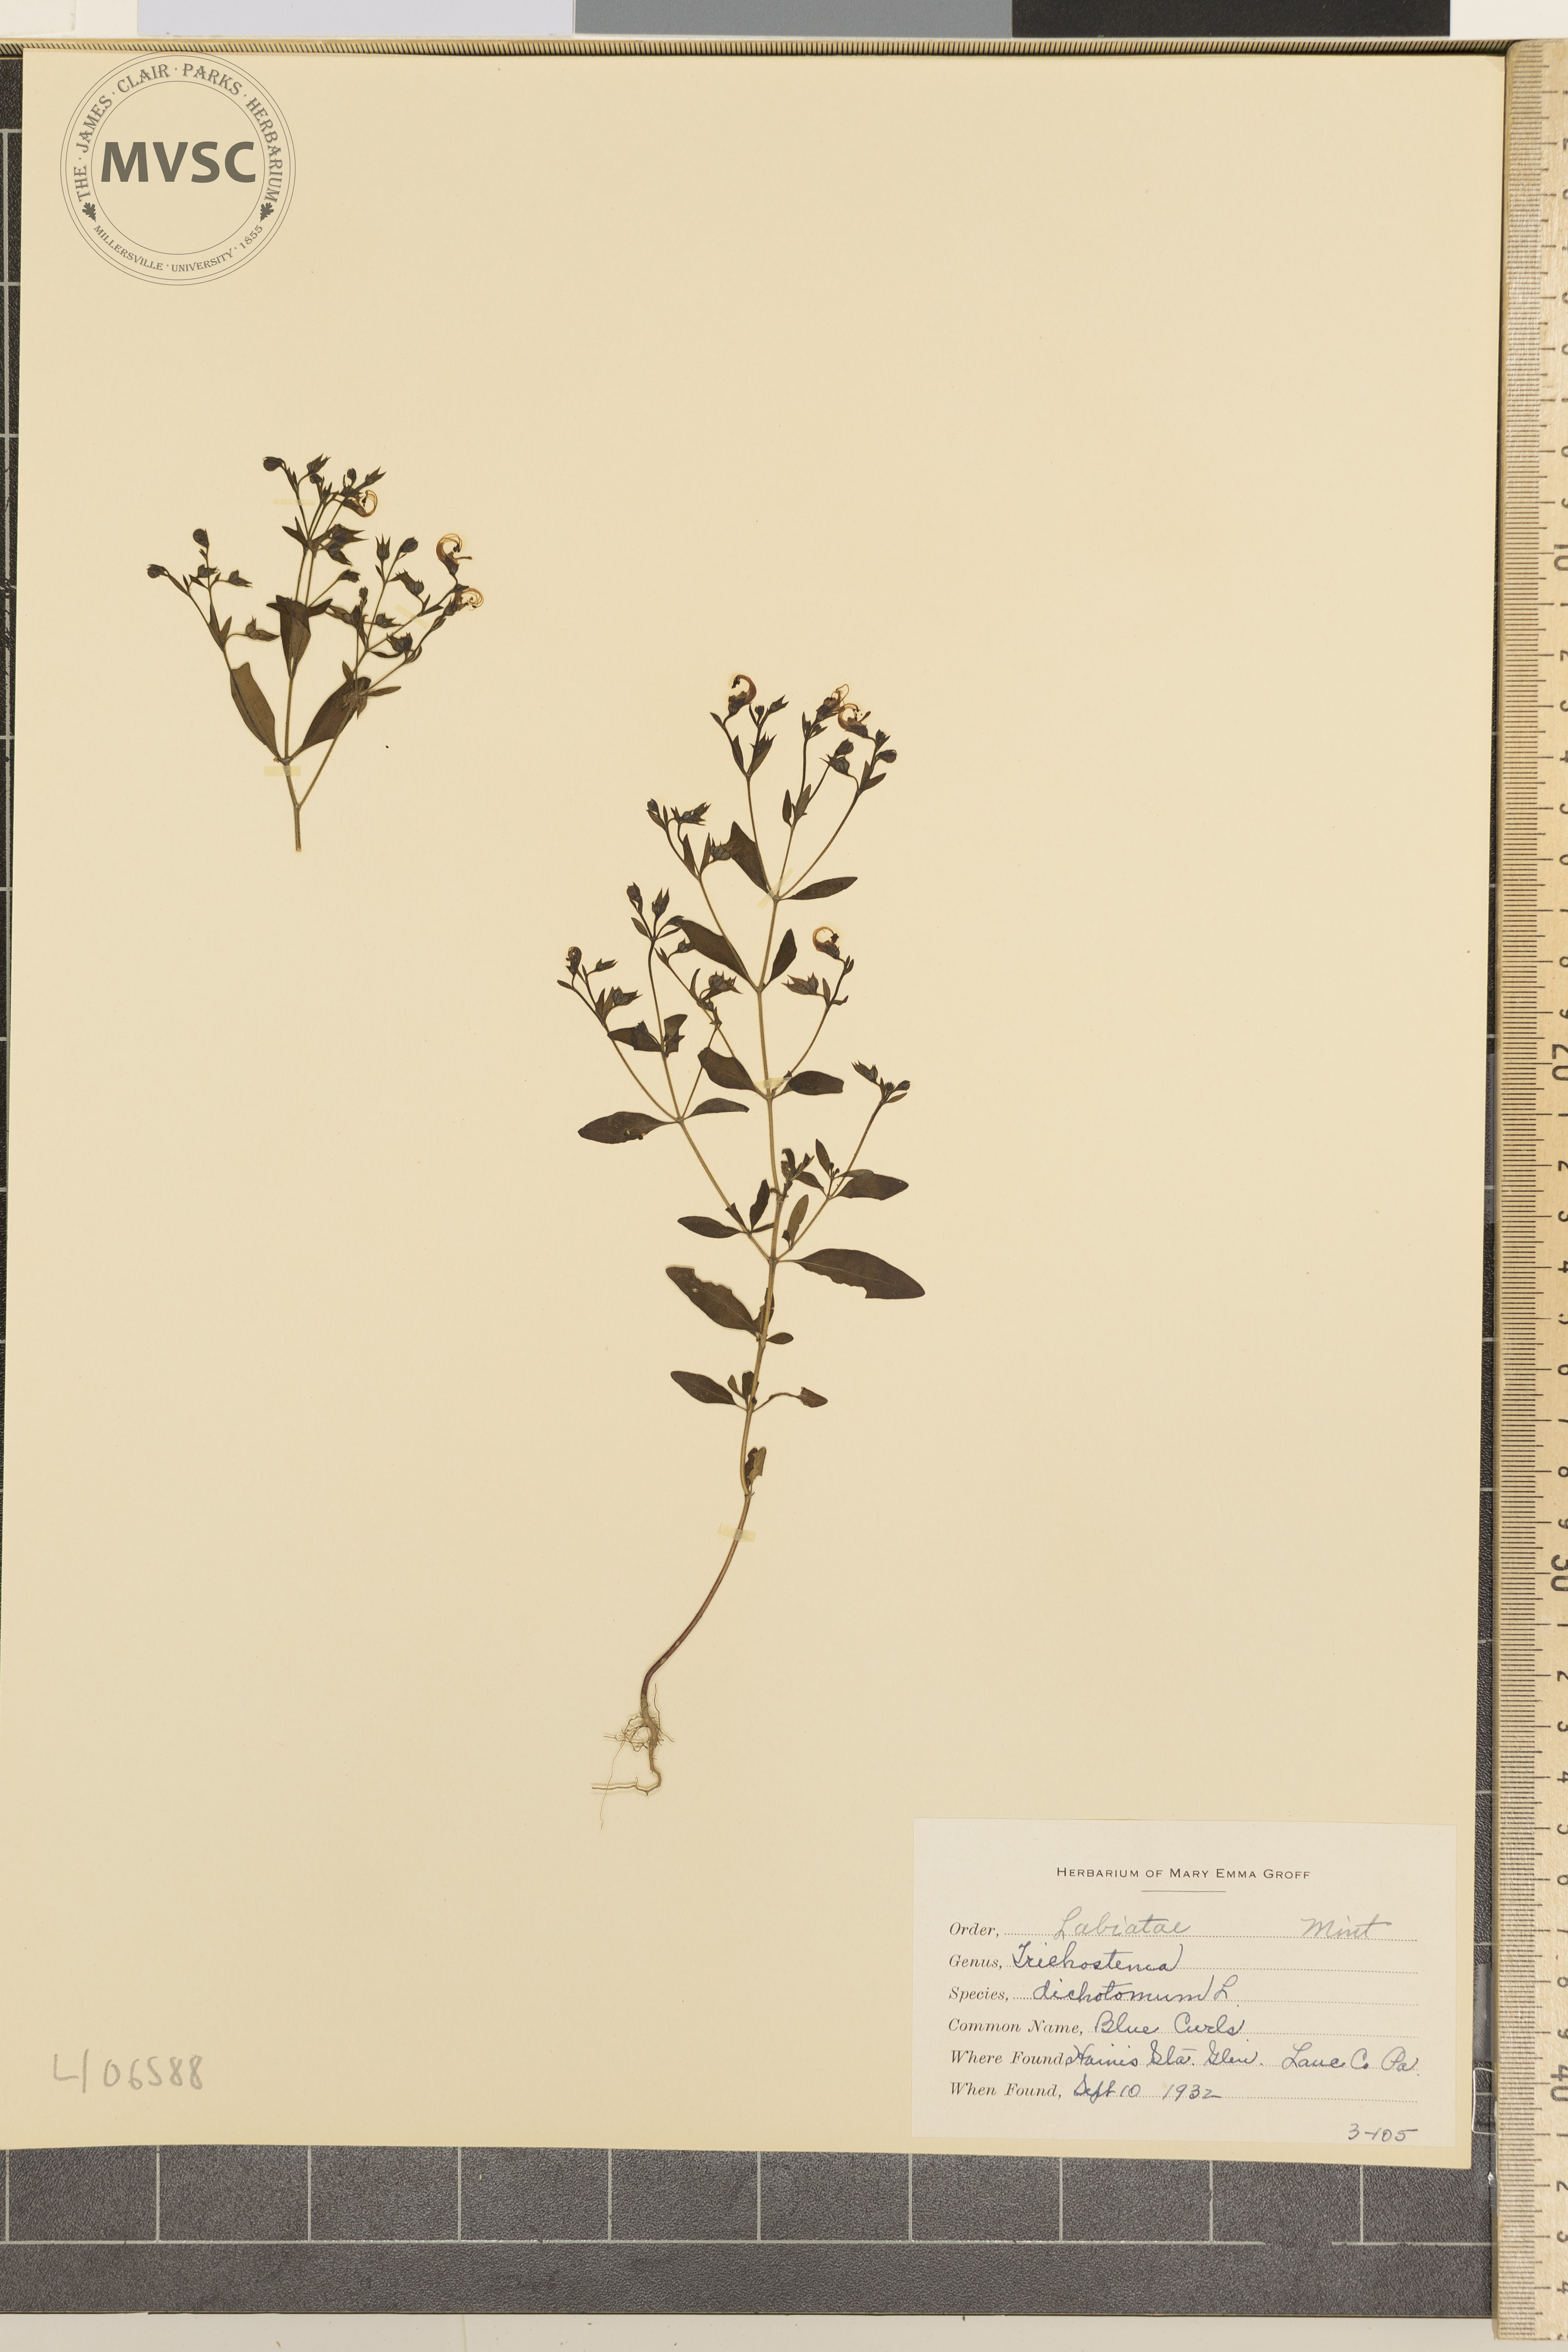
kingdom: Plantae
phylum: Tracheophyta
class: Magnoliopsida
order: Lamiales
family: Lamiaceae
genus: Trichostema
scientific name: Trichostema dichotomum
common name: Blue Curls
